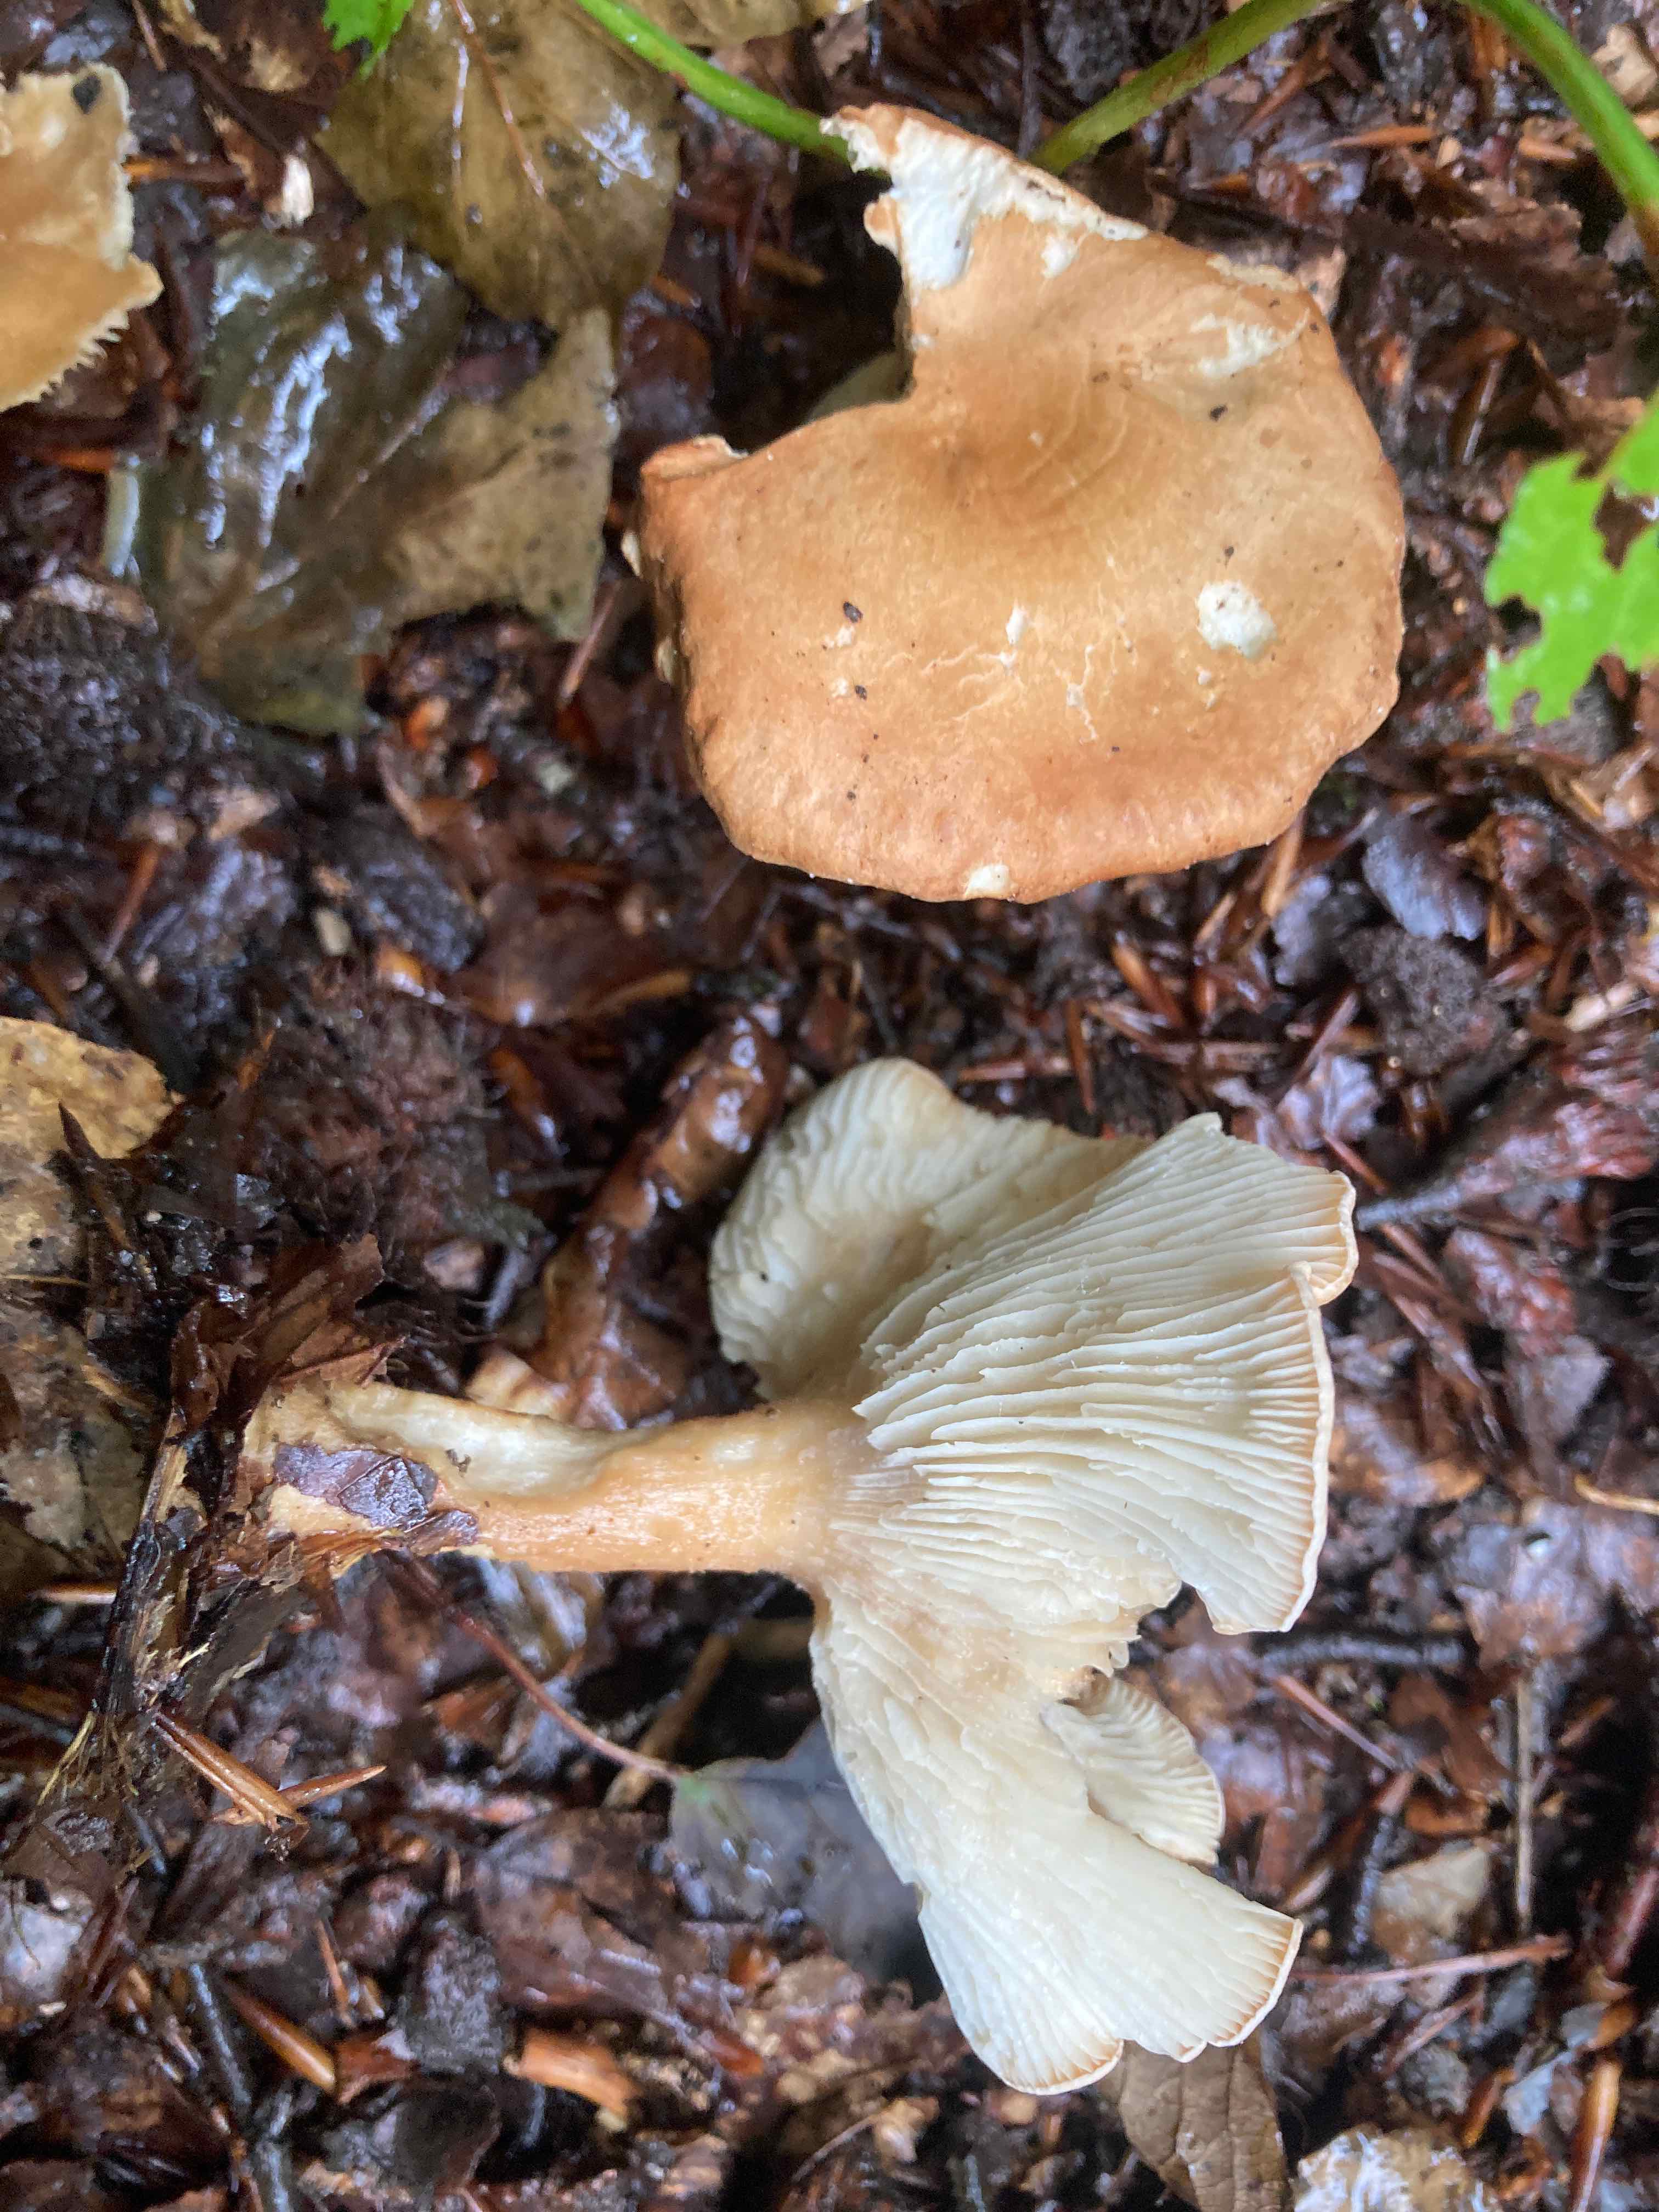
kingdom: Fungi
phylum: Basidiomycota
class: Agaricomycetes
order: Agaricales
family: Tricholomataceae
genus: Infundibulicybe
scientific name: Infundibulicybe gibba
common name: almindelig tragthat
